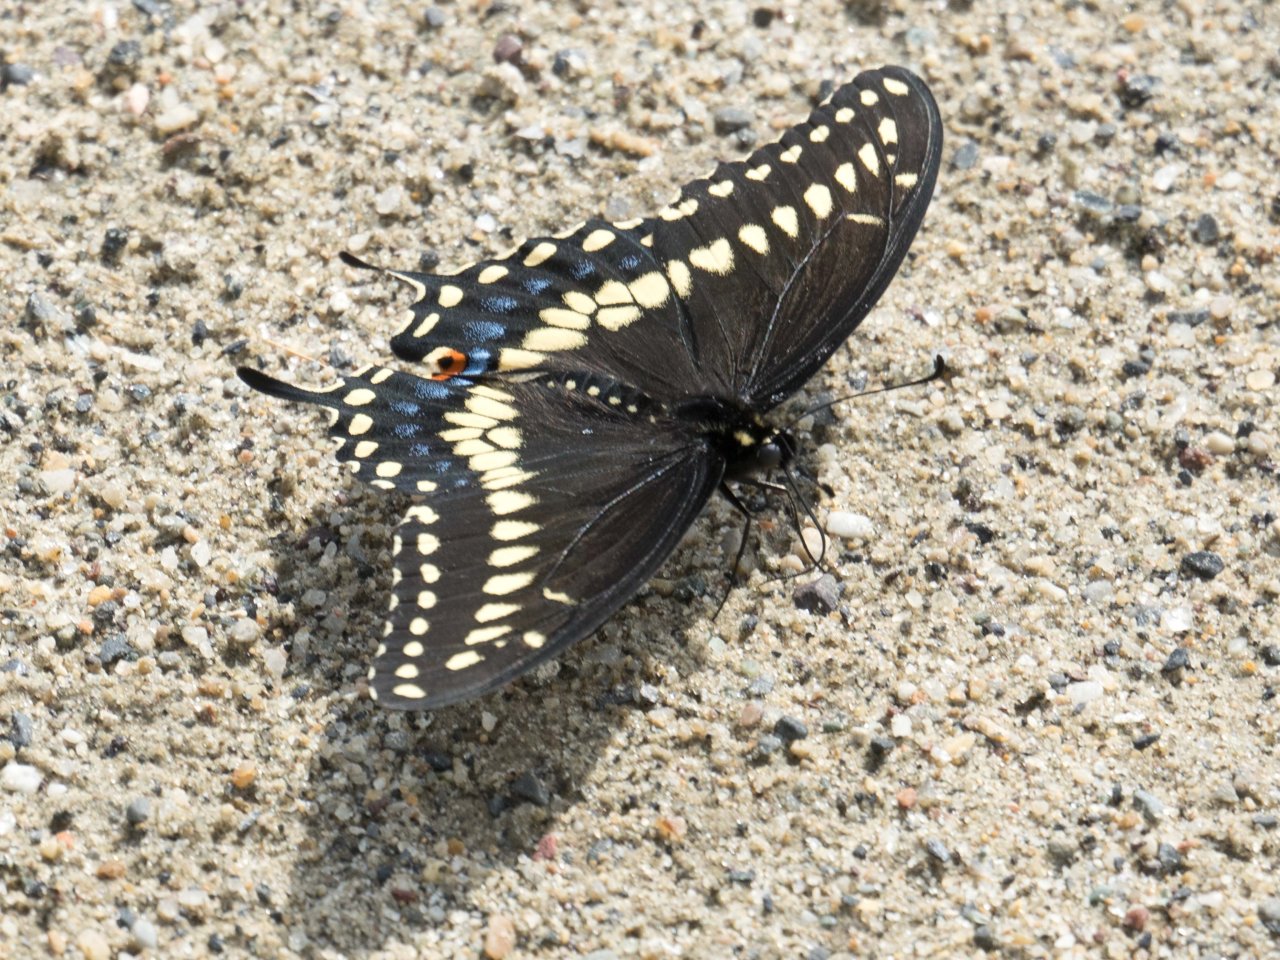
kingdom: Animalia
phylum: Arthropoda
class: Insecta
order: Lepidoptera
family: Papilionidae
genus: Papilio
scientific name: Papilio polyxenes
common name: Black Swallowtail
